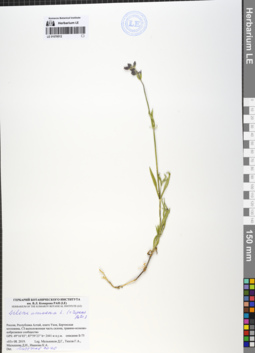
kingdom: Plantae
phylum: Tracheophyta
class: Magnoliopsida
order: Caryophyllales
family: Caryophyllaceae
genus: Silene
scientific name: Silene amoena
